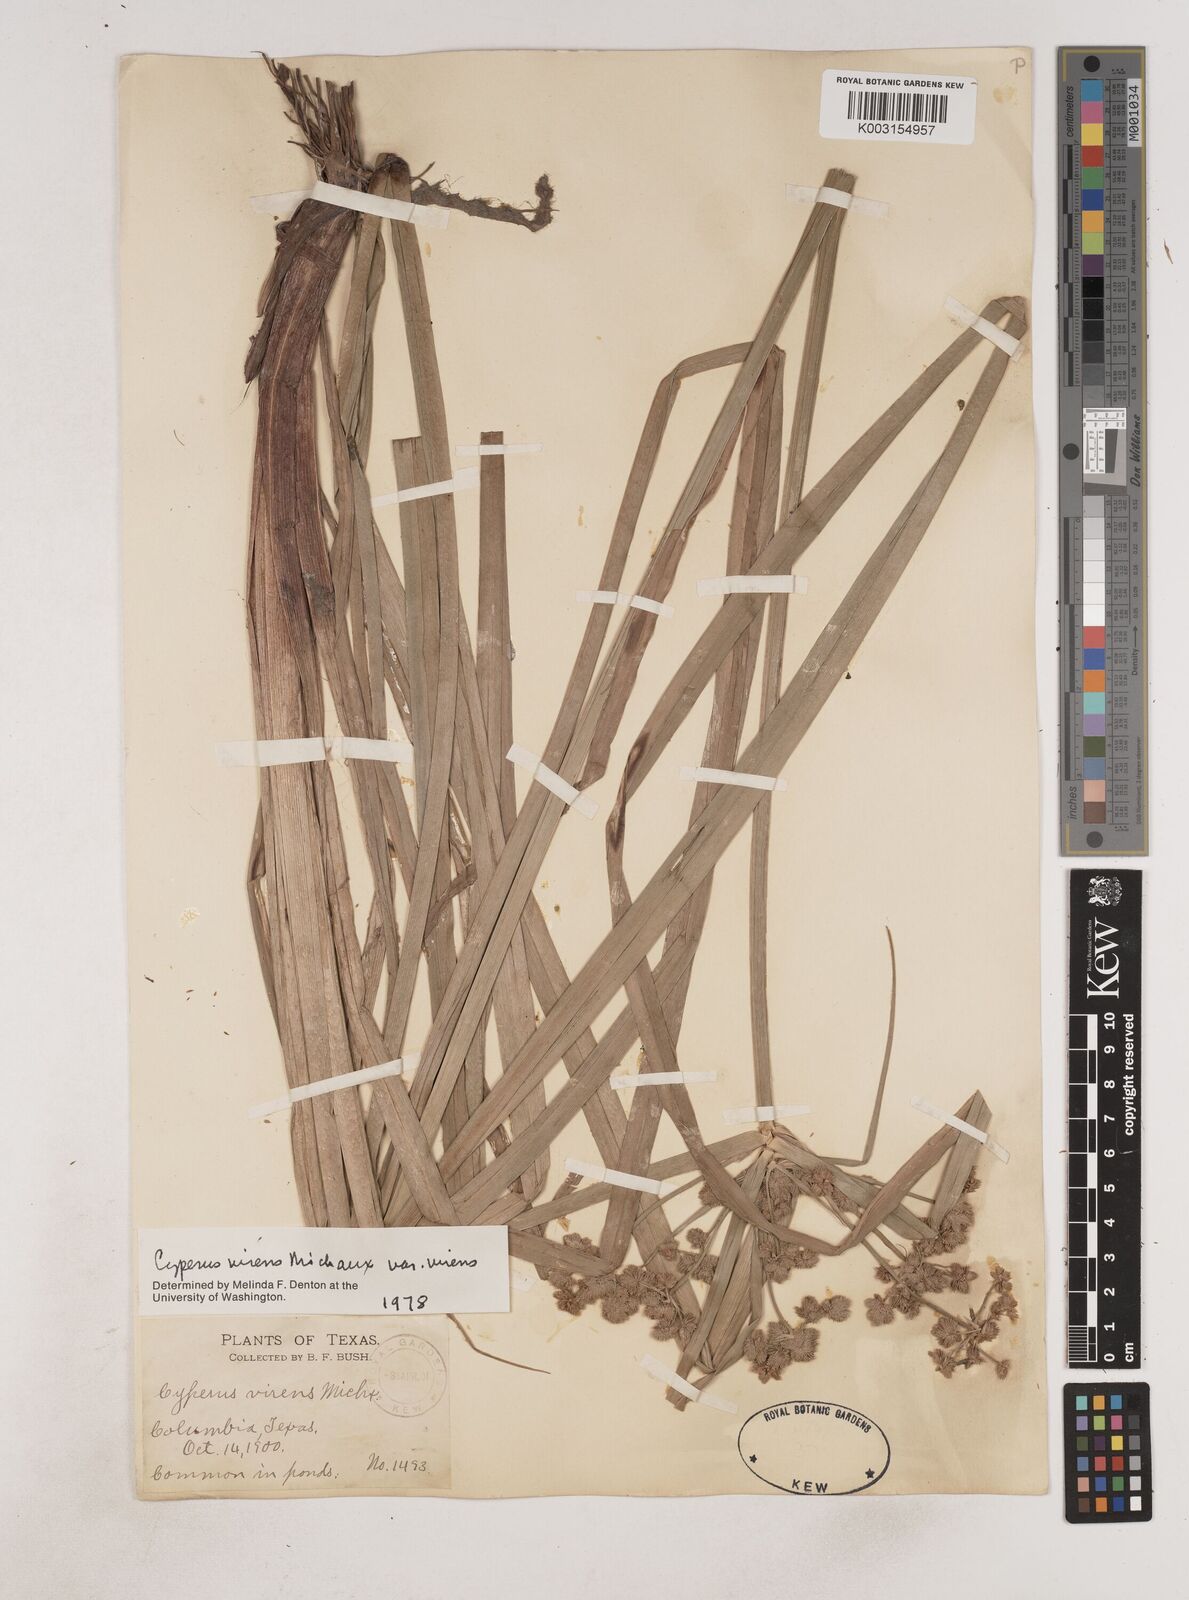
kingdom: Plantae
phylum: Tracheophyta
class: Liliopsida
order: Poales
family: Cyperaceae
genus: Cyperus
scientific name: Cyperus virens
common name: Green flatsedge
